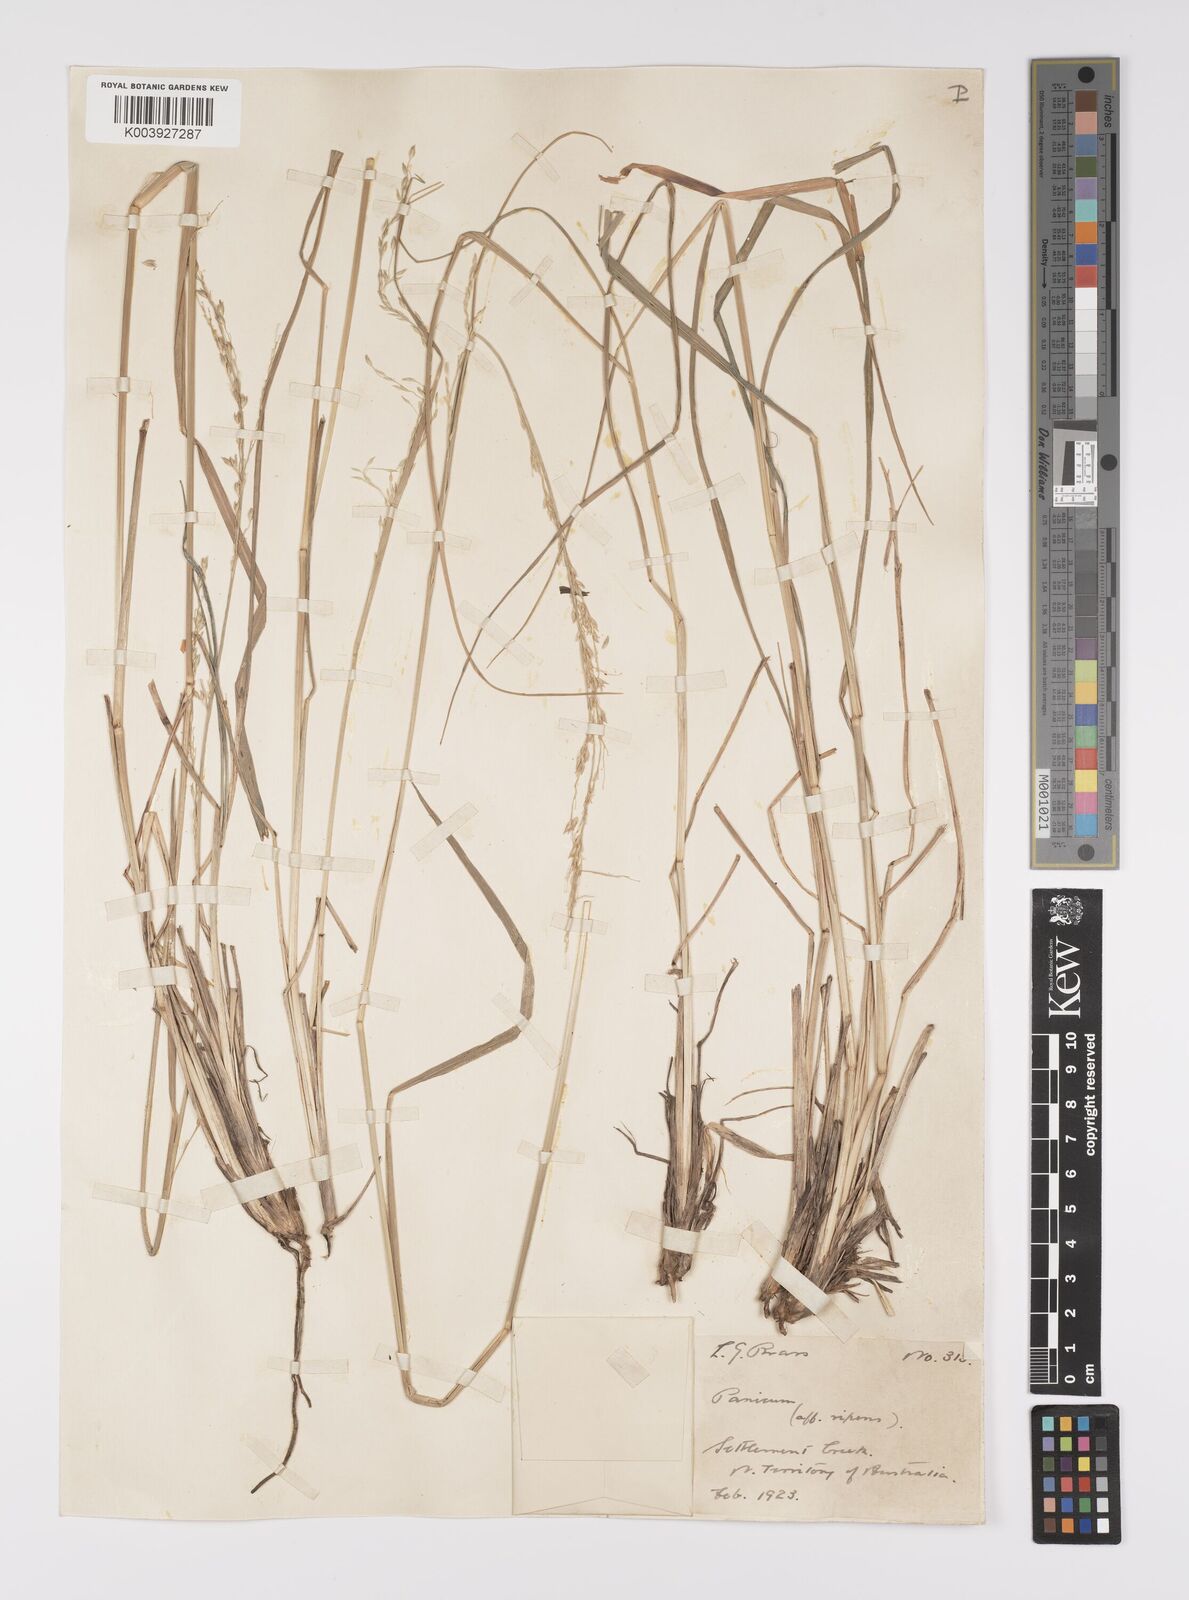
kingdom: Plantae
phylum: Tracheophyta
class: Liliopsida
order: Poales
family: Poaceae
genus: Whiteochloa
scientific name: Whiteochloa airoides
